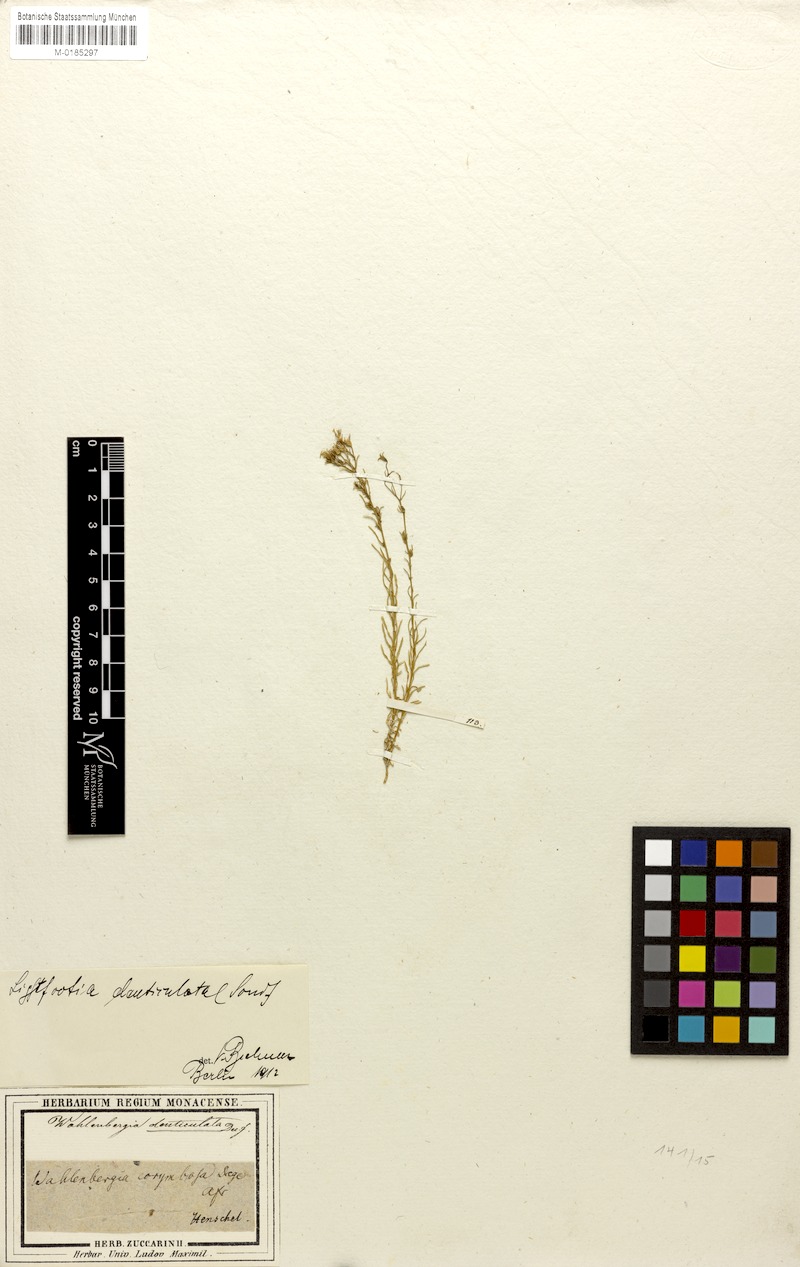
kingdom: Plantae
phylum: Tracheophyta
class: Magnoliopsida
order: Asterales
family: Campanulaceae
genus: Wahlenbergia
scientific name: Wahlenbergia denticulata
